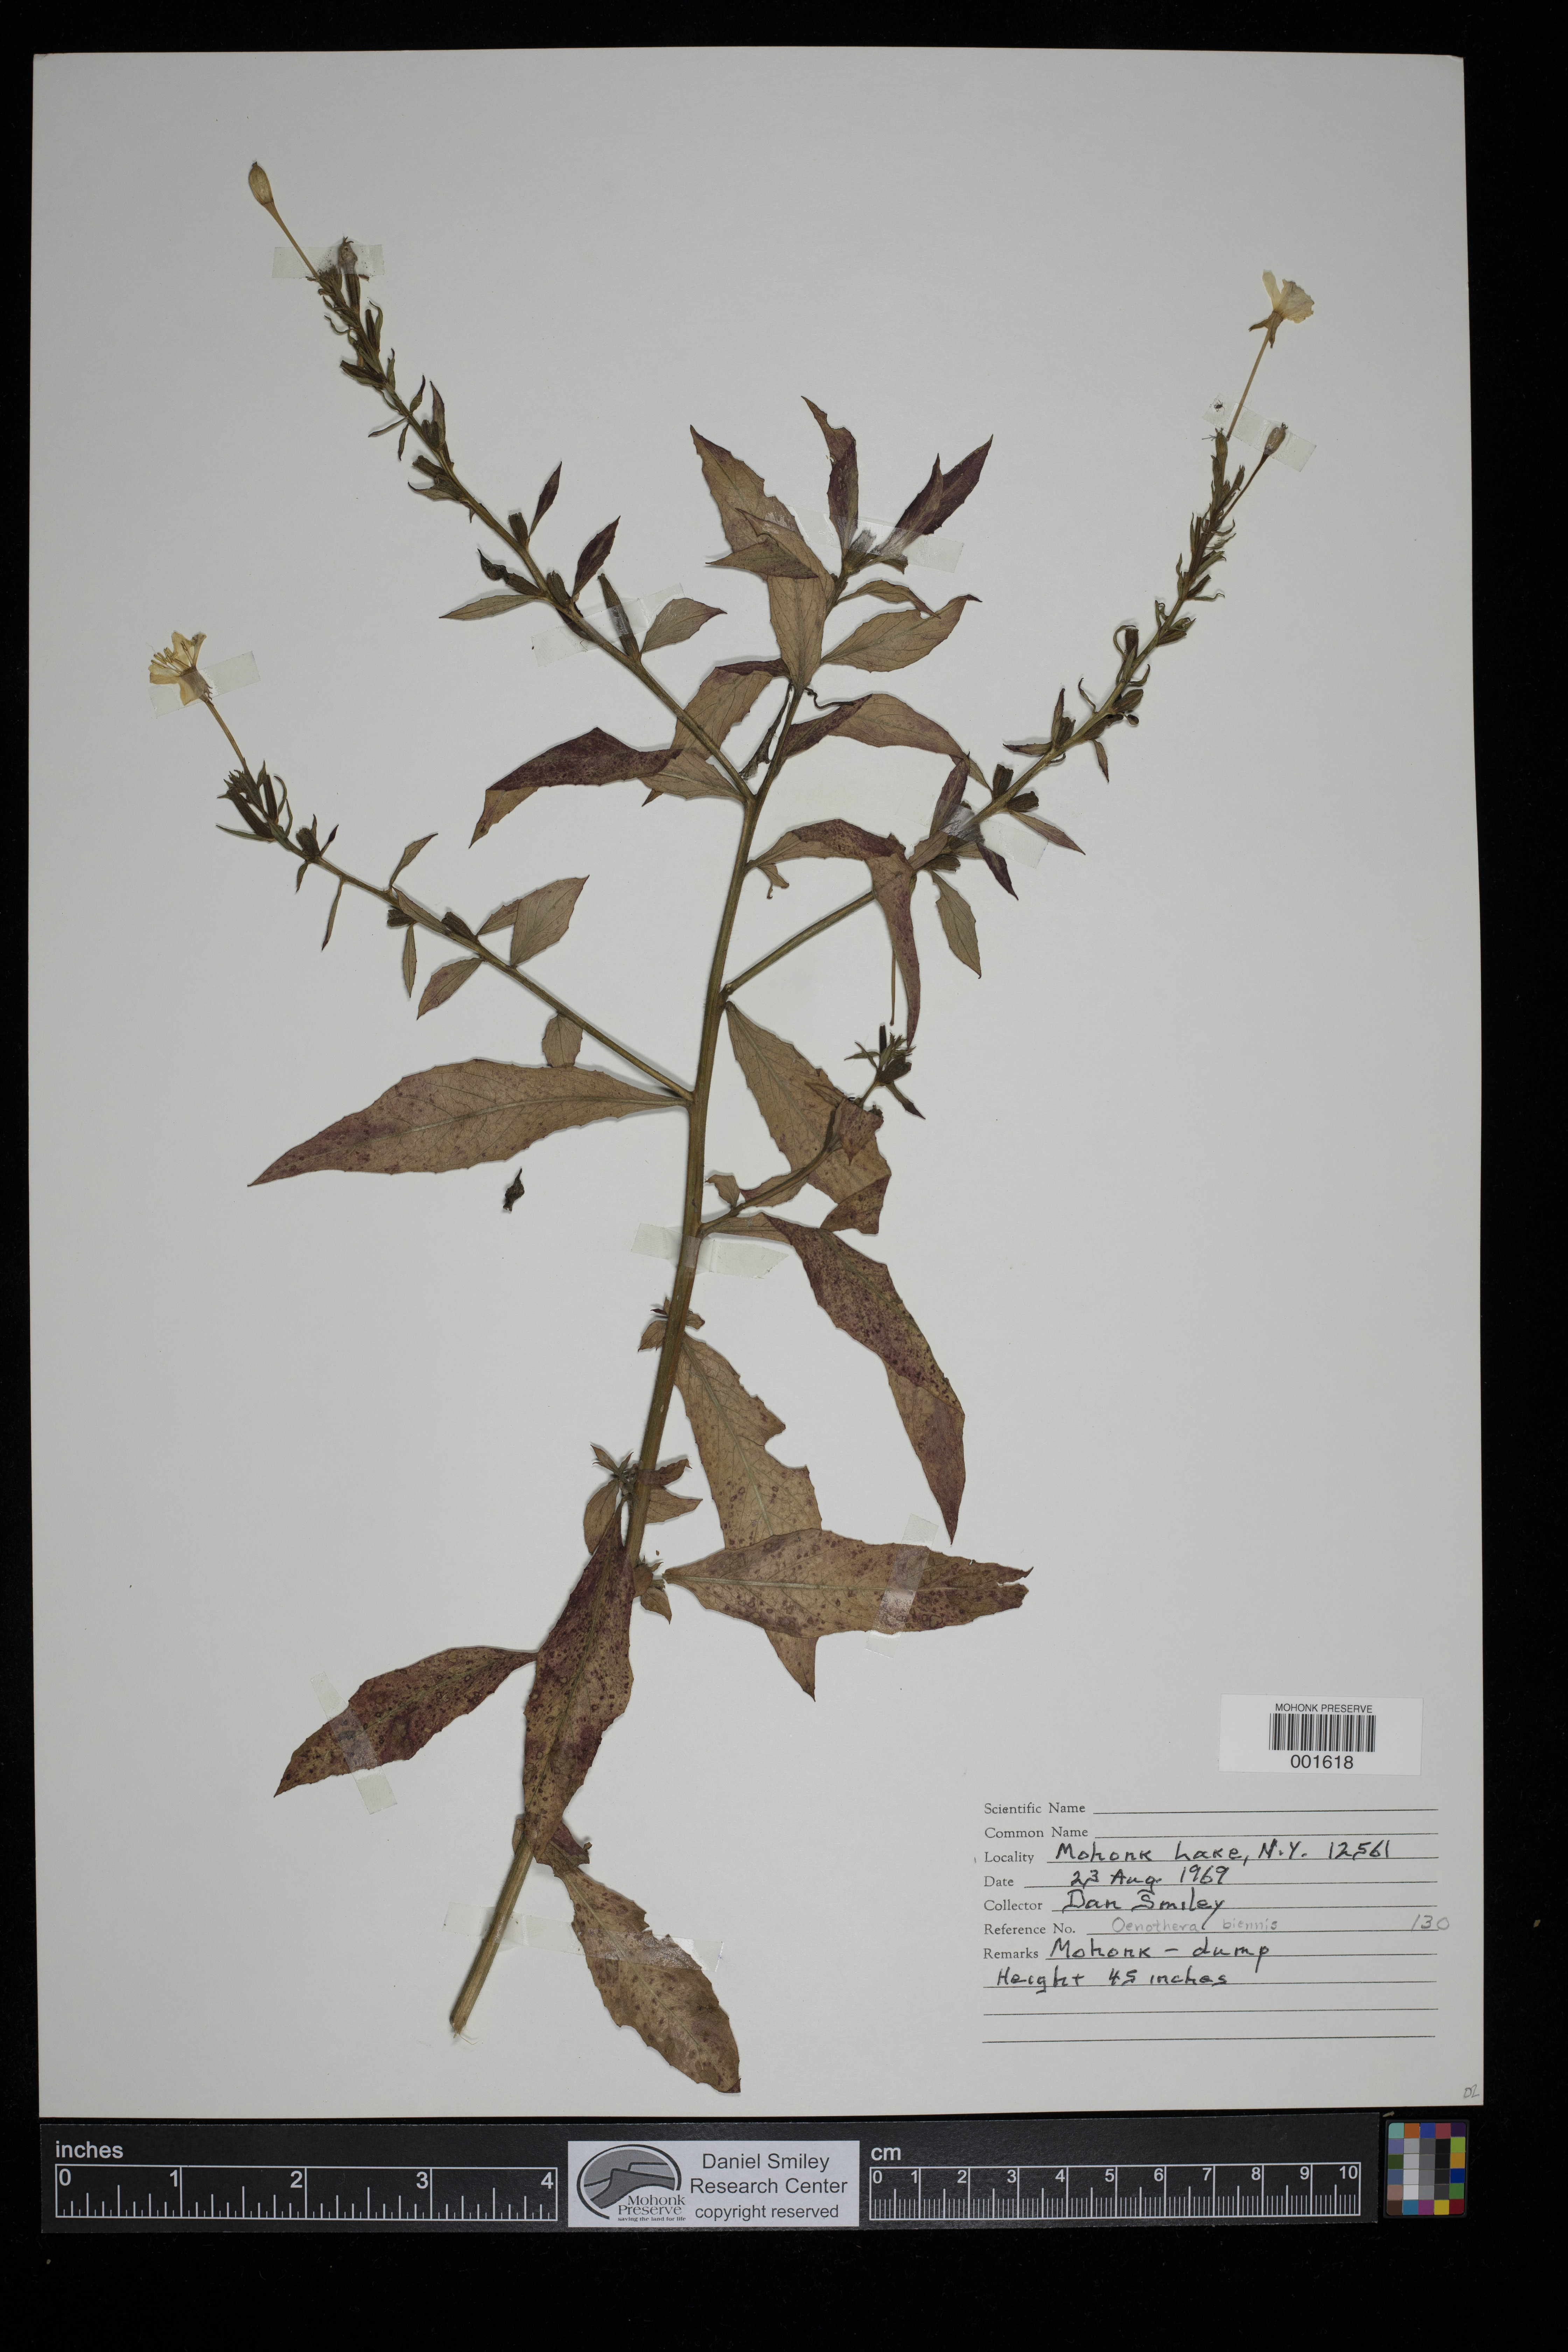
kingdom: Plantae
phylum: Tracheophyta
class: Magnoliopsida
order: Myrtales
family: Onagraceae
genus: Oenothera
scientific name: Oenothera biennis
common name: Common evening-primrose
